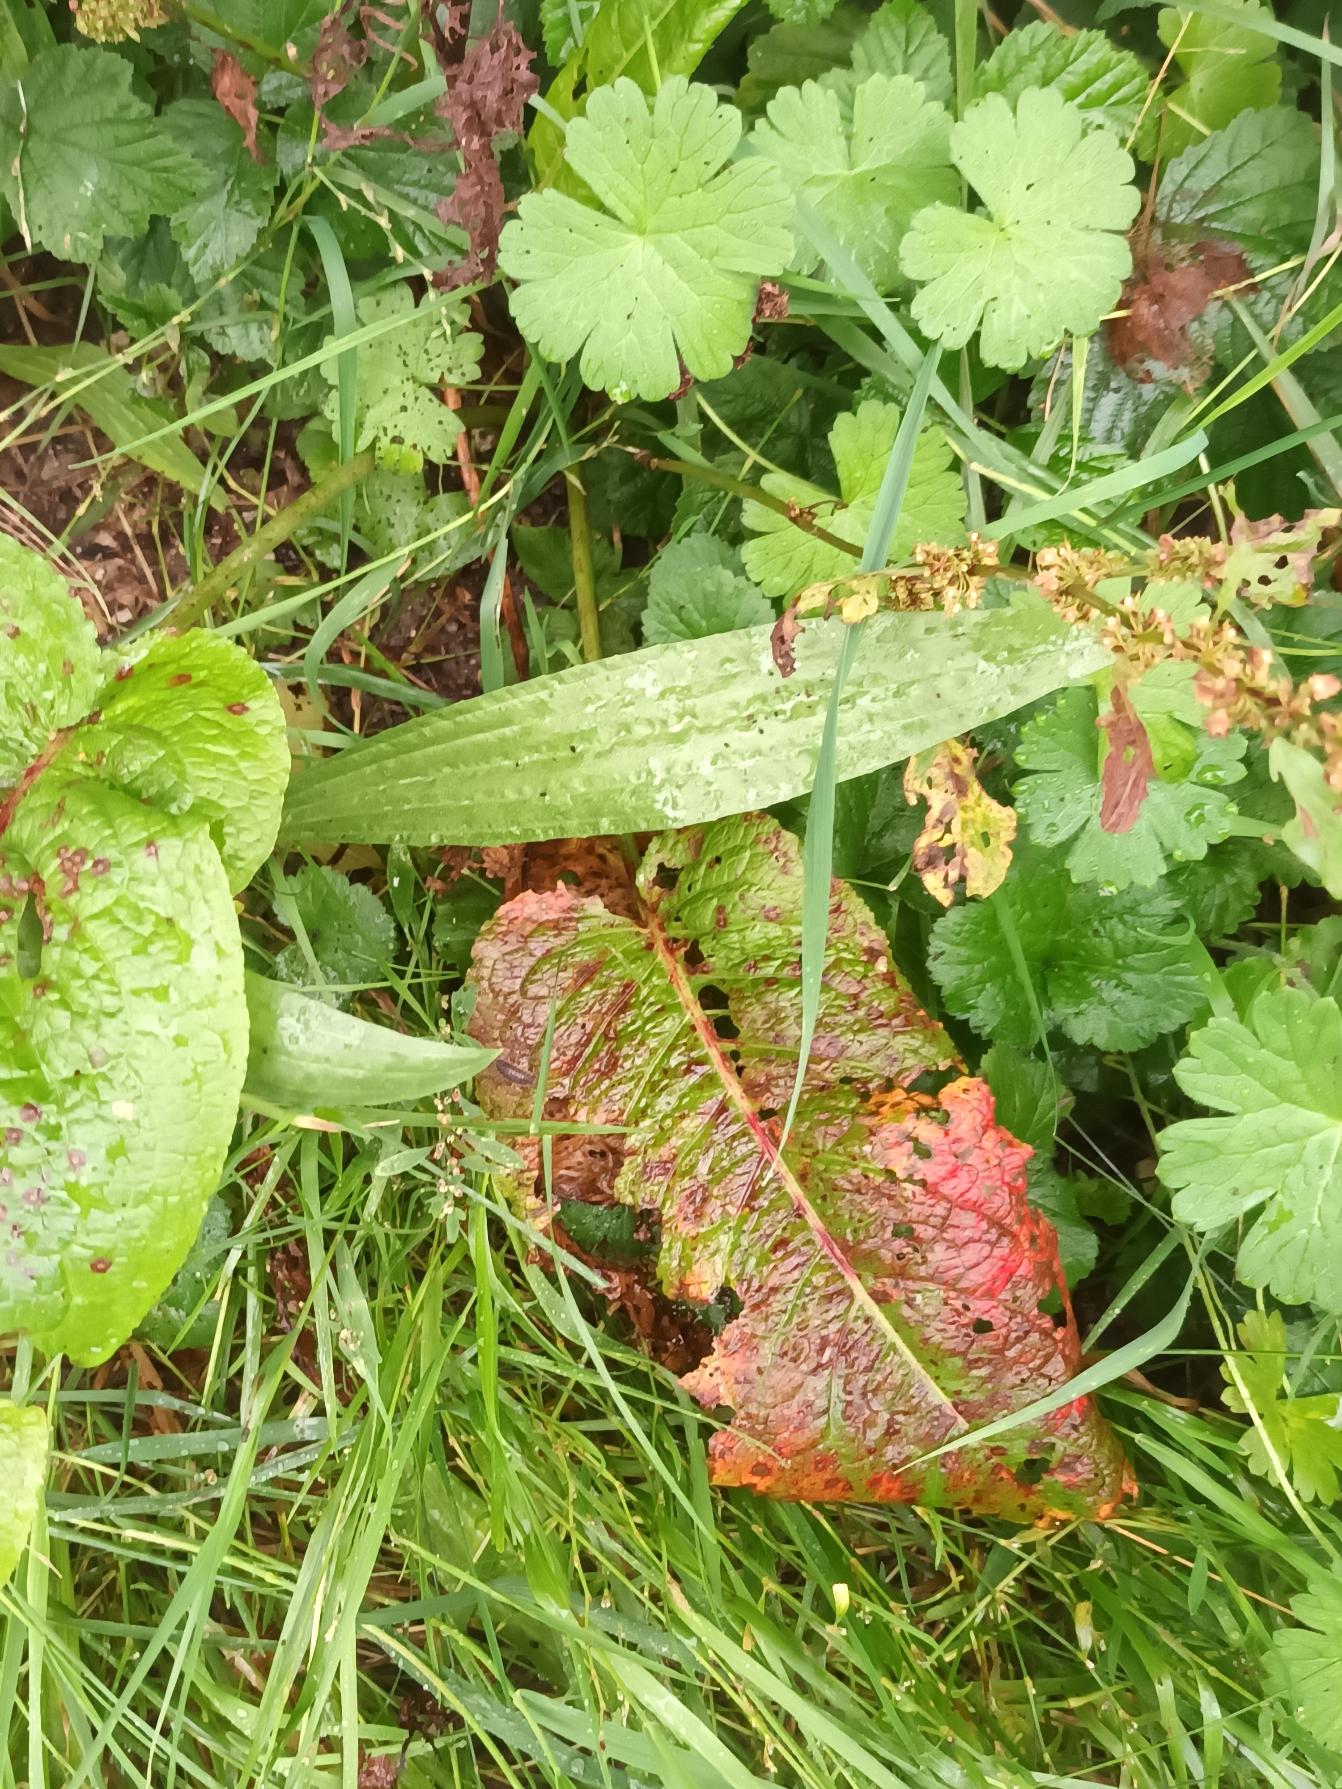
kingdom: Plantae
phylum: Tracheophyta
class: Magnoliopsida
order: Lamiales
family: Plantaginaceae
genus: Plantago
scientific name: Plantago lanceolata
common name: Lancet-vejbred
